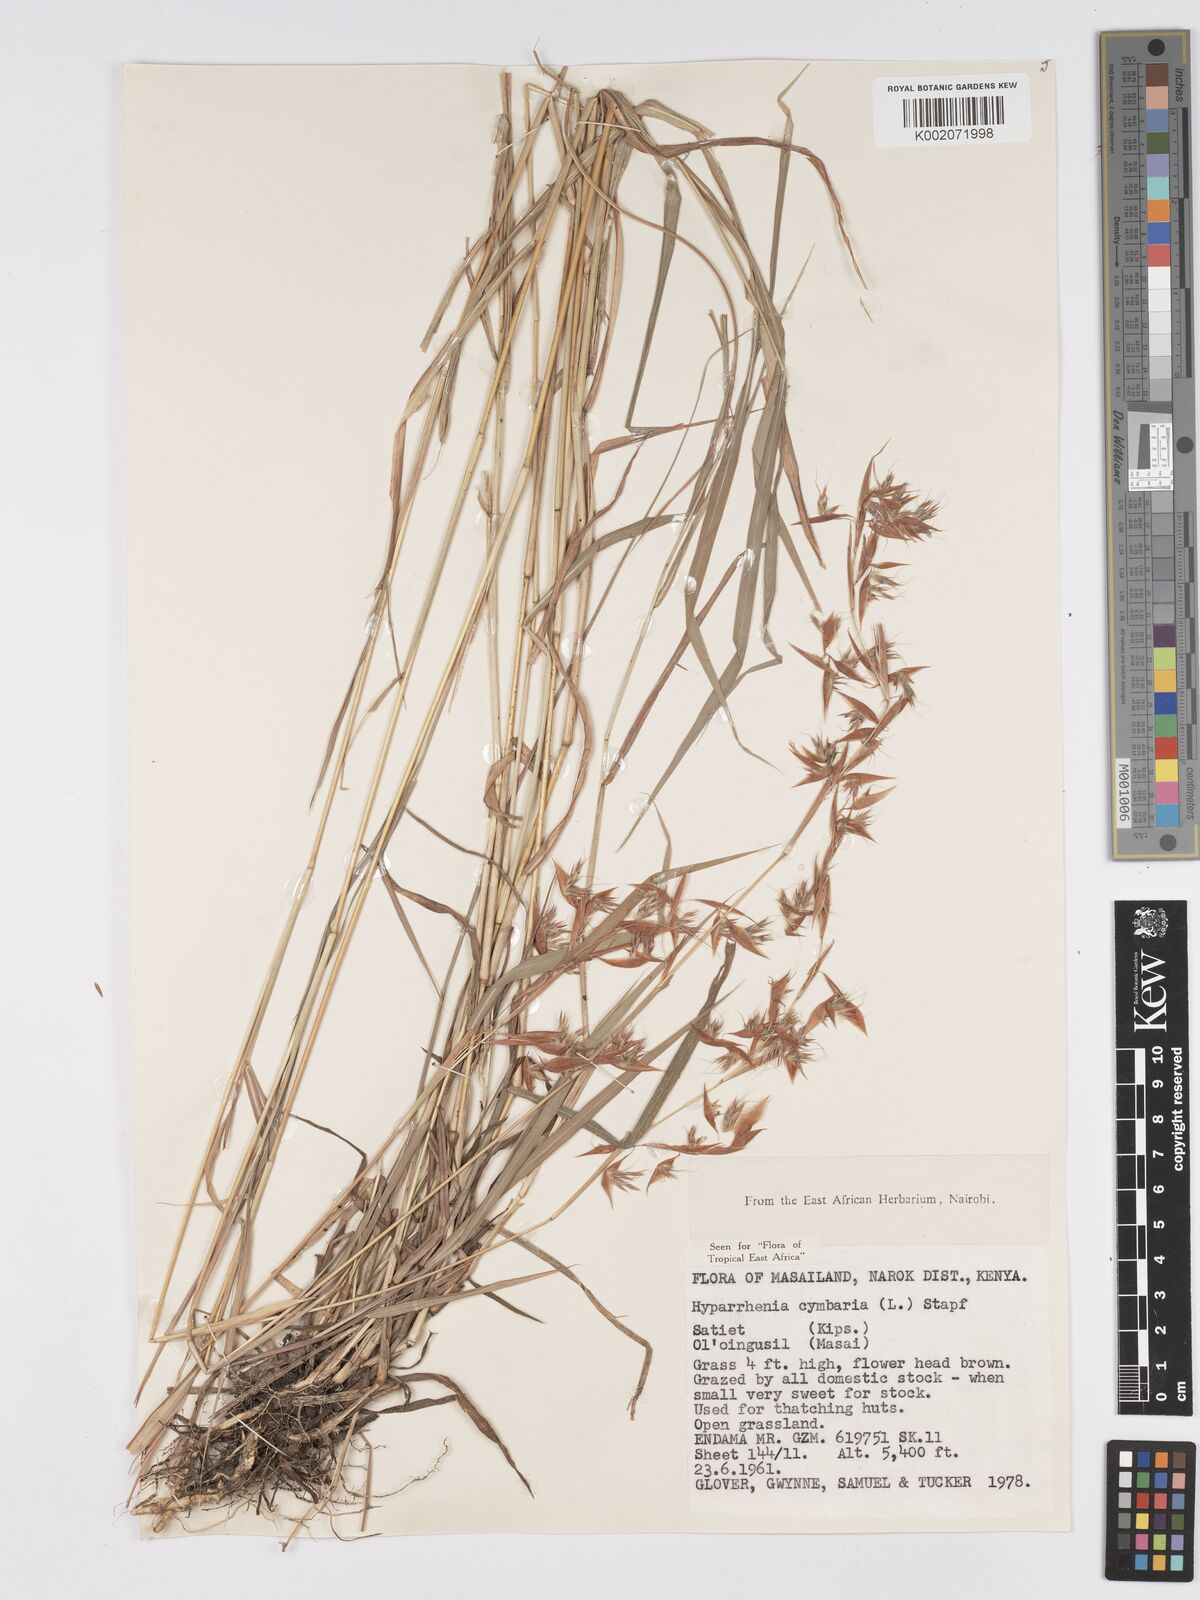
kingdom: Plantae
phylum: Tracheophyta
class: Liliopsida
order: Poales
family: Poaceae
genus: Hyparrhenia
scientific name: Hyparrhenia cymbaria
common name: Boat thatching grass
